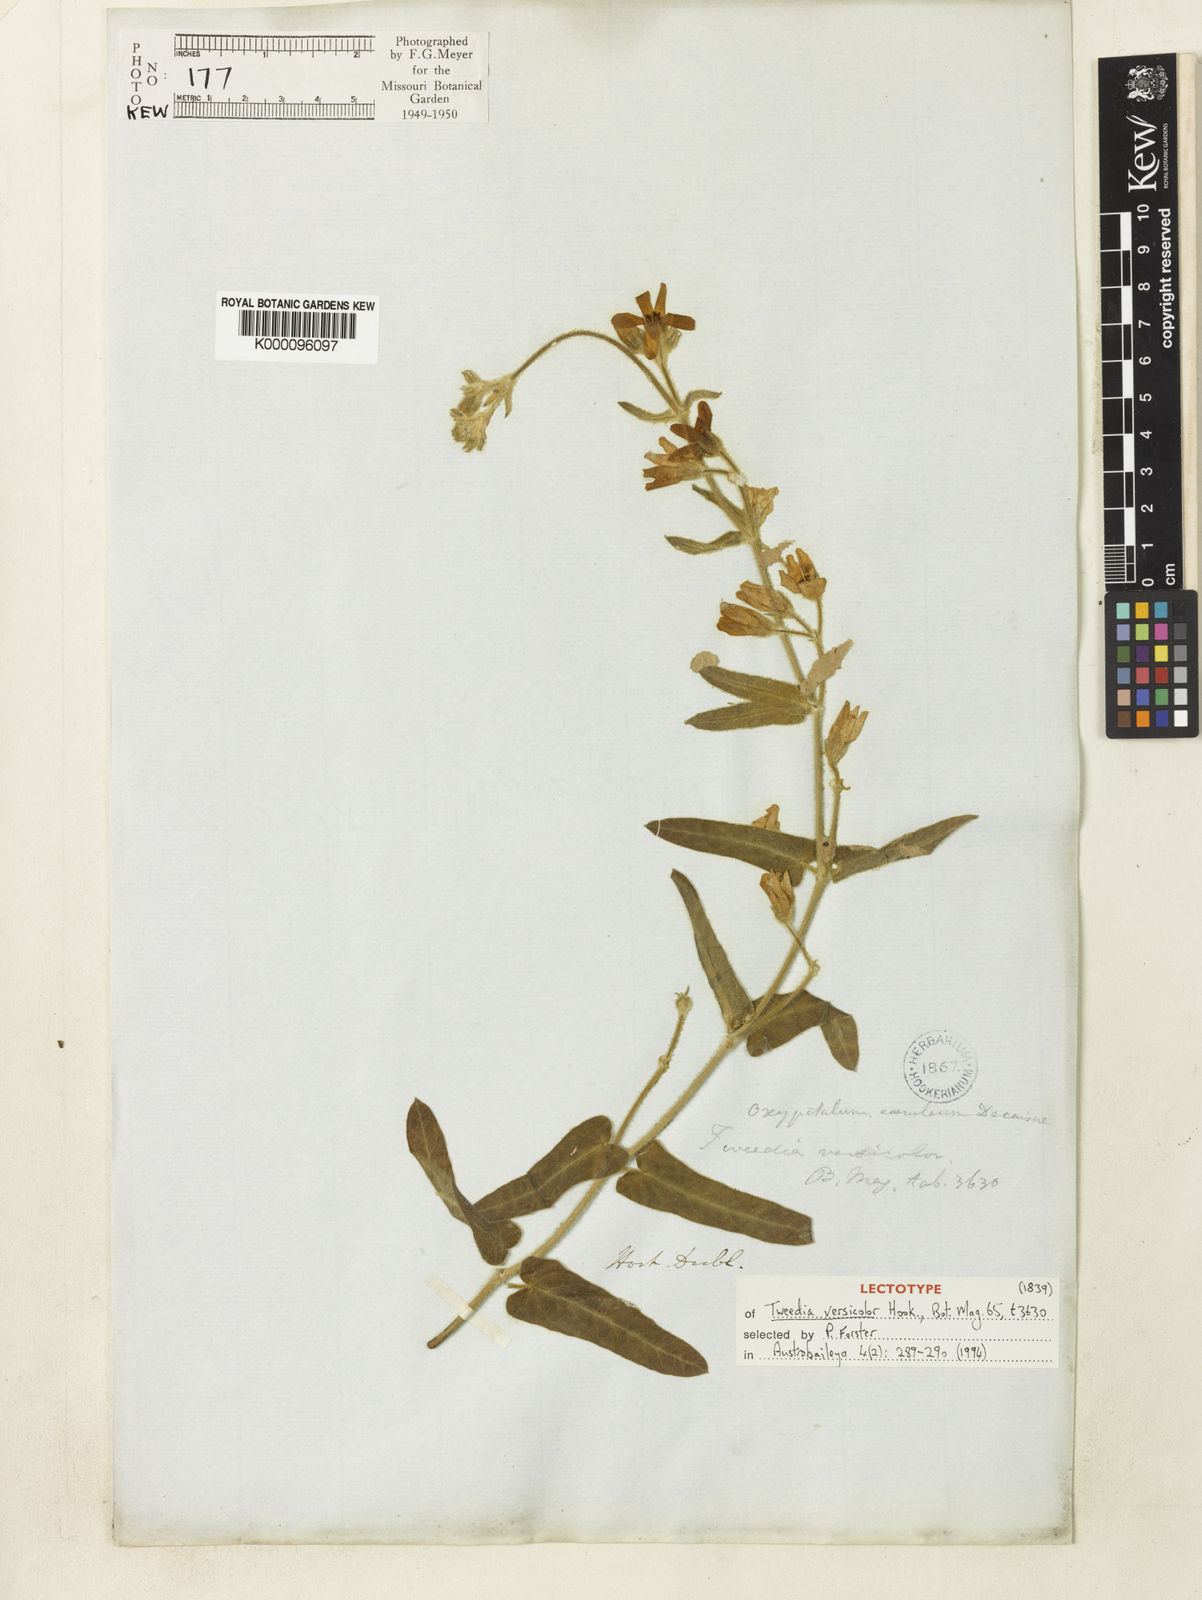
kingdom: Plantae
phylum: Tracheophyta
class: Magnoliopsida
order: Gentianales
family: Apocynaceae
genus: Oxypetalum
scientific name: Oxypetalum coeruleum
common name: Southern star
